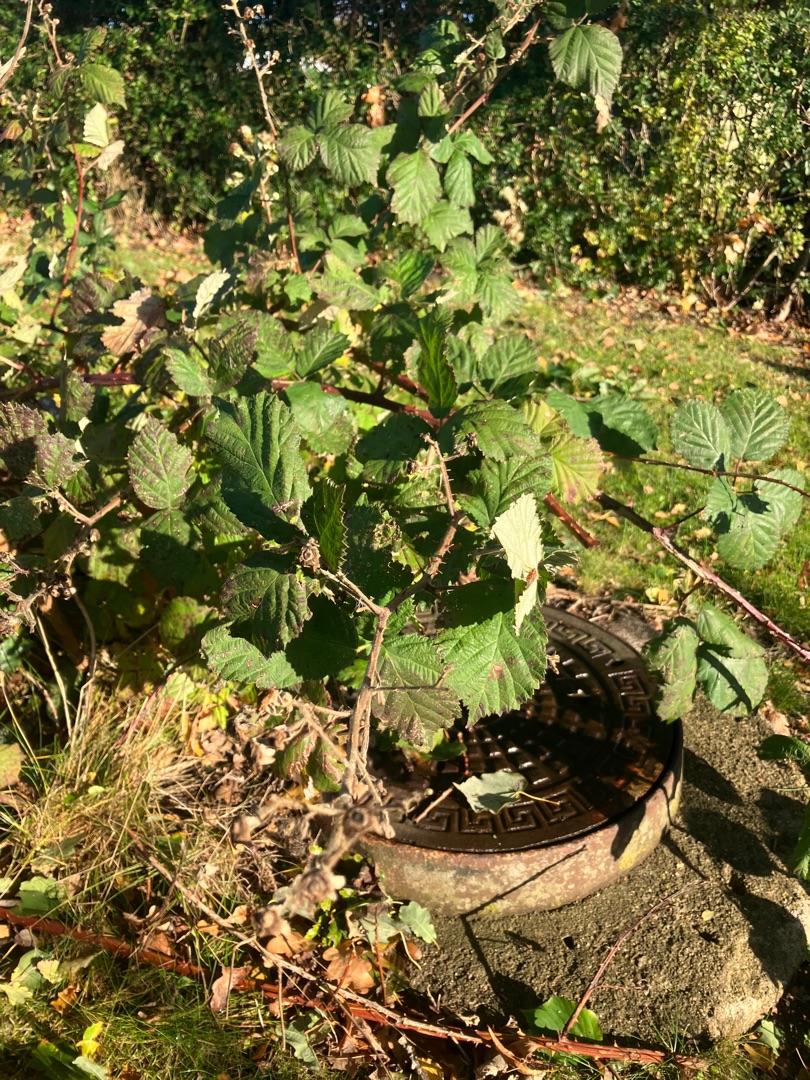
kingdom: Plantae
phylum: Tracheophyta
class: Magnoliopsida
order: Rosales
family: Rosaceae
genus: Rubus
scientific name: Rubus armeniacus
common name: Armensk brombær
